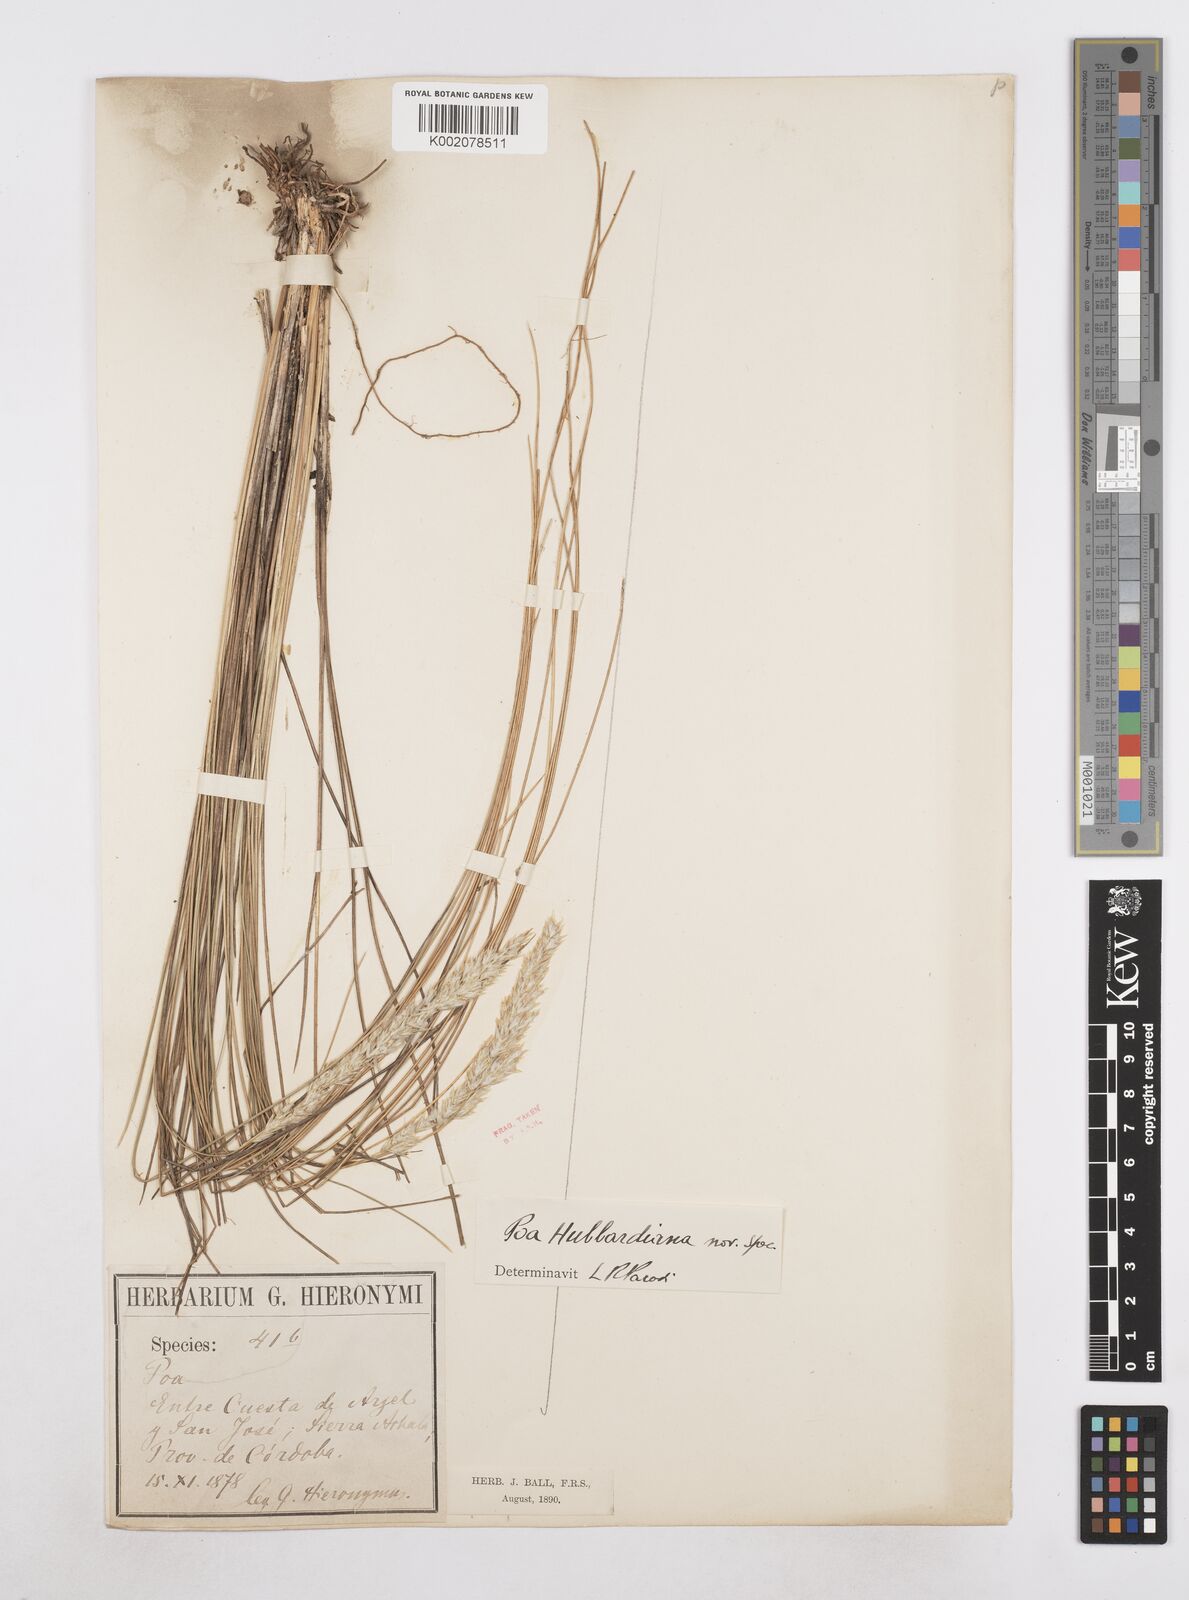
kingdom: Plantae
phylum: Tracheophyta
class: Liliopsida
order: Poales
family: Poaceae
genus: Poa
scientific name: Poa hubbardiana
